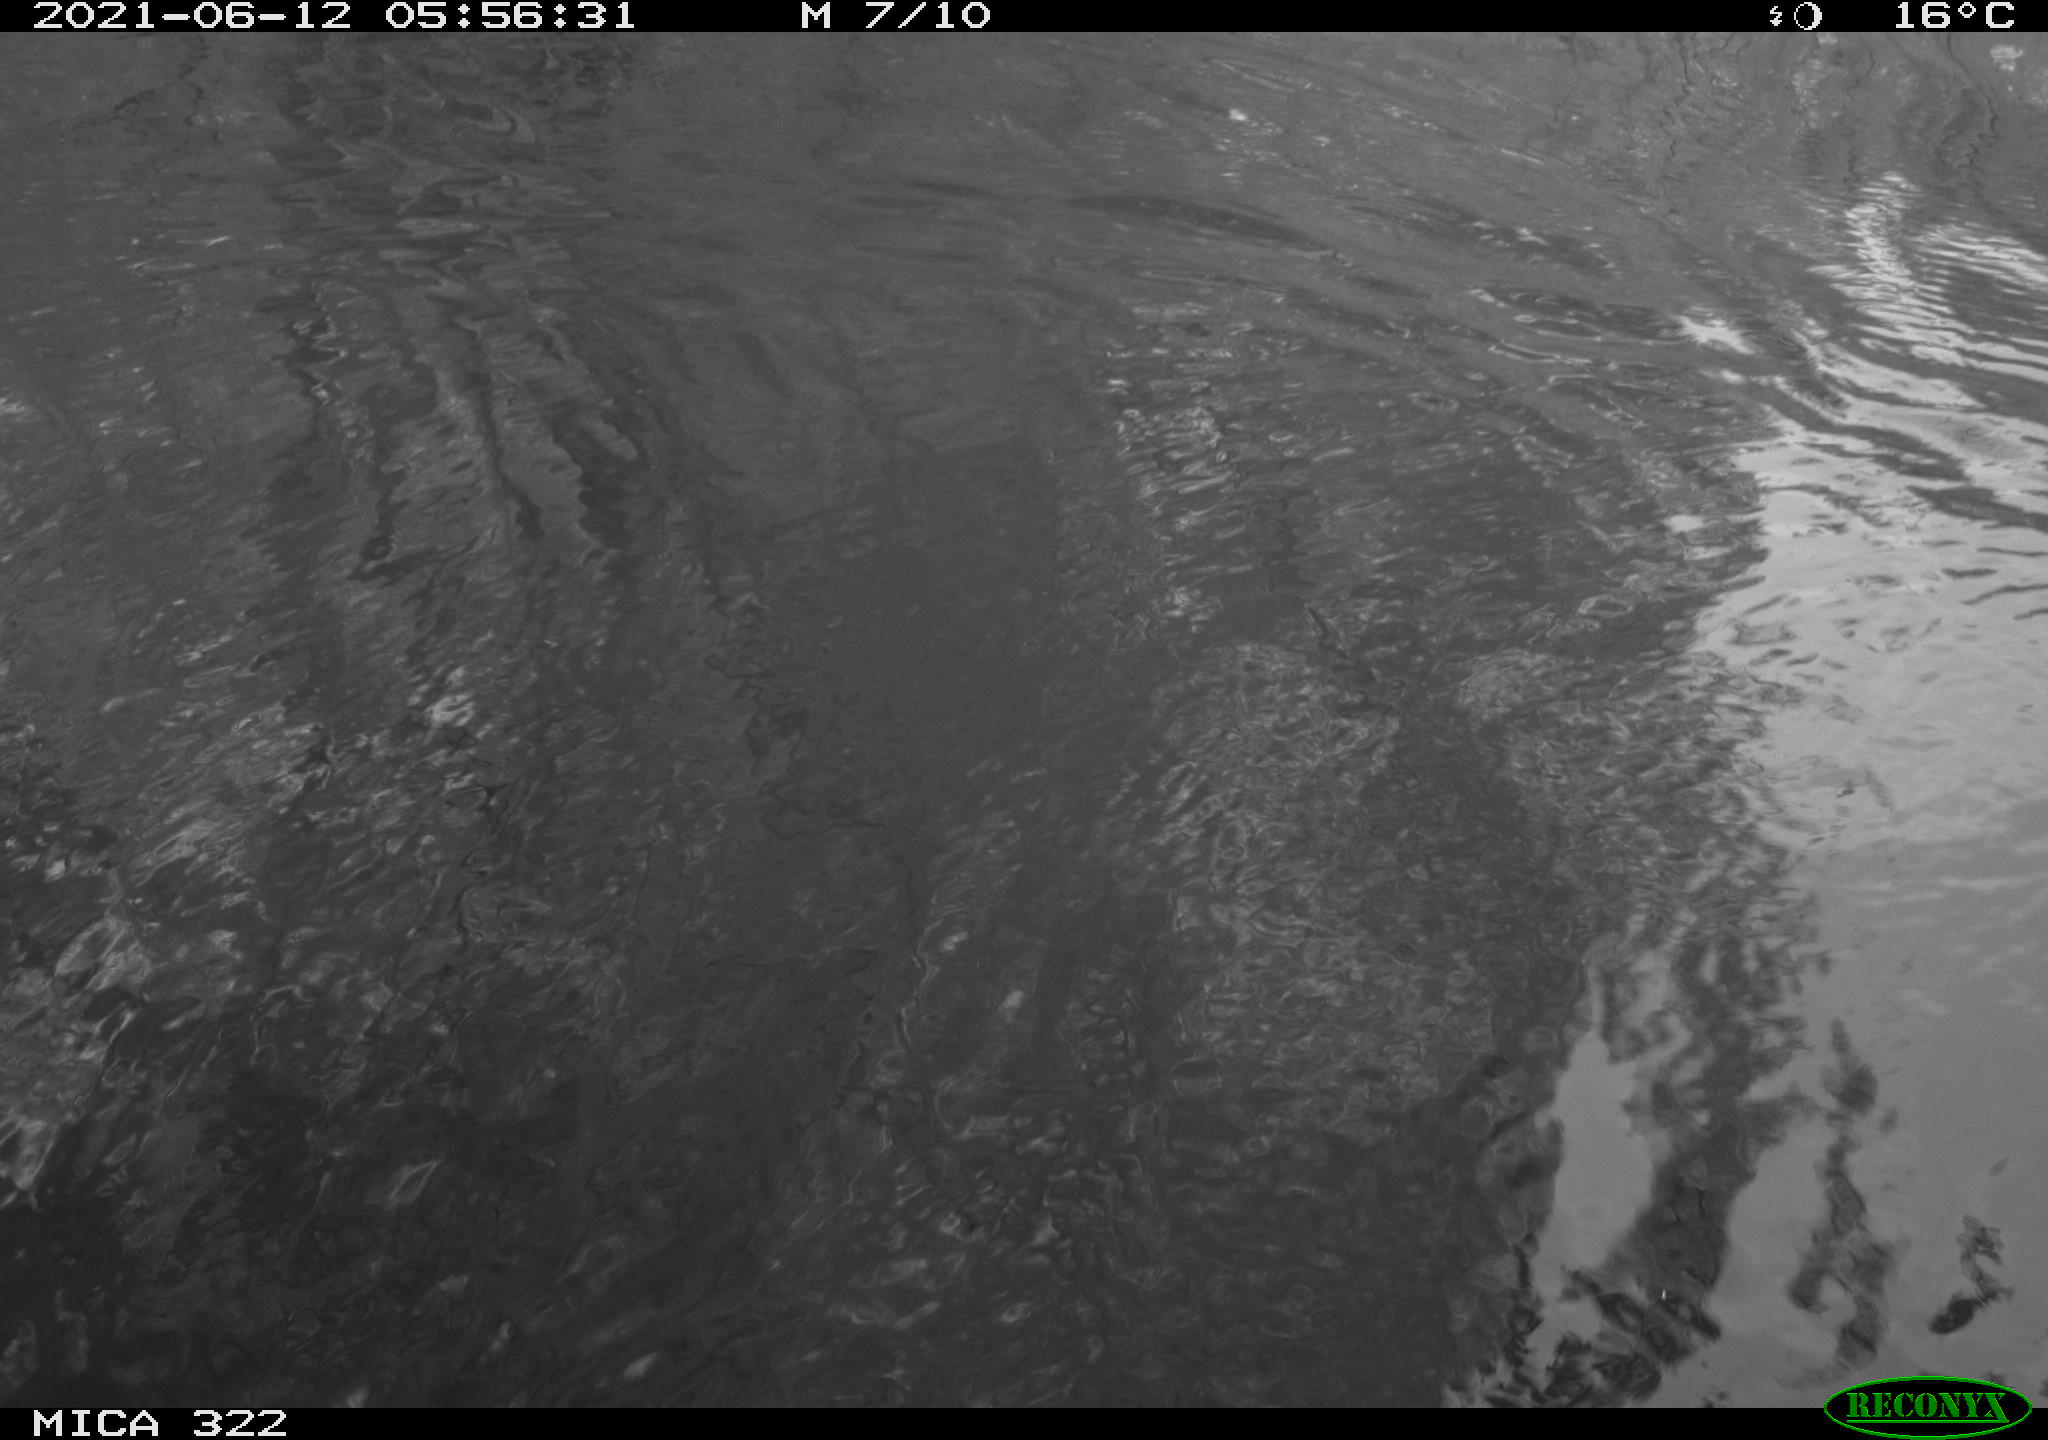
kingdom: Animalia
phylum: Chordata
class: Aves
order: Gruiformes
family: Rallidae
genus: Fulica
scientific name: Fulica atra
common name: Eurasian coot
